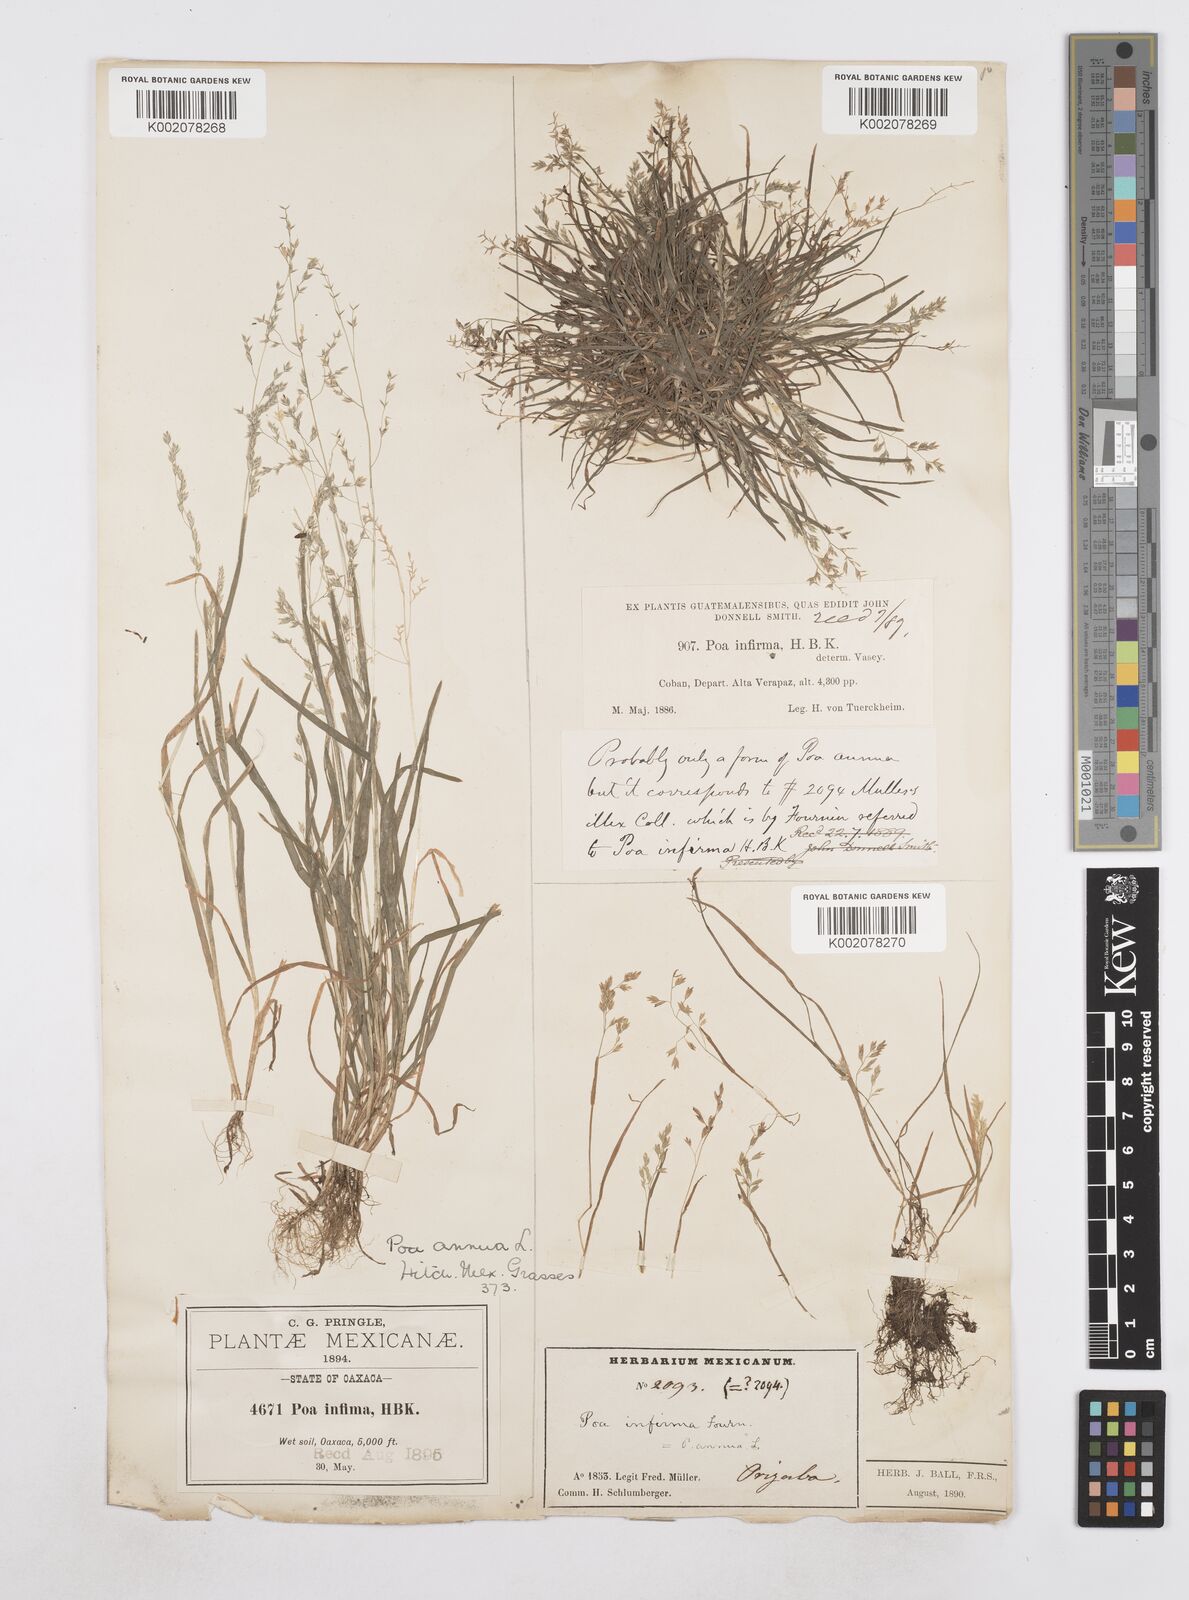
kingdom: Plantae
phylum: Tracheophyta
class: Liliopsida
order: Poales
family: Poaceae
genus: Poa
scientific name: Poa annua
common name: Annual bluegrass
